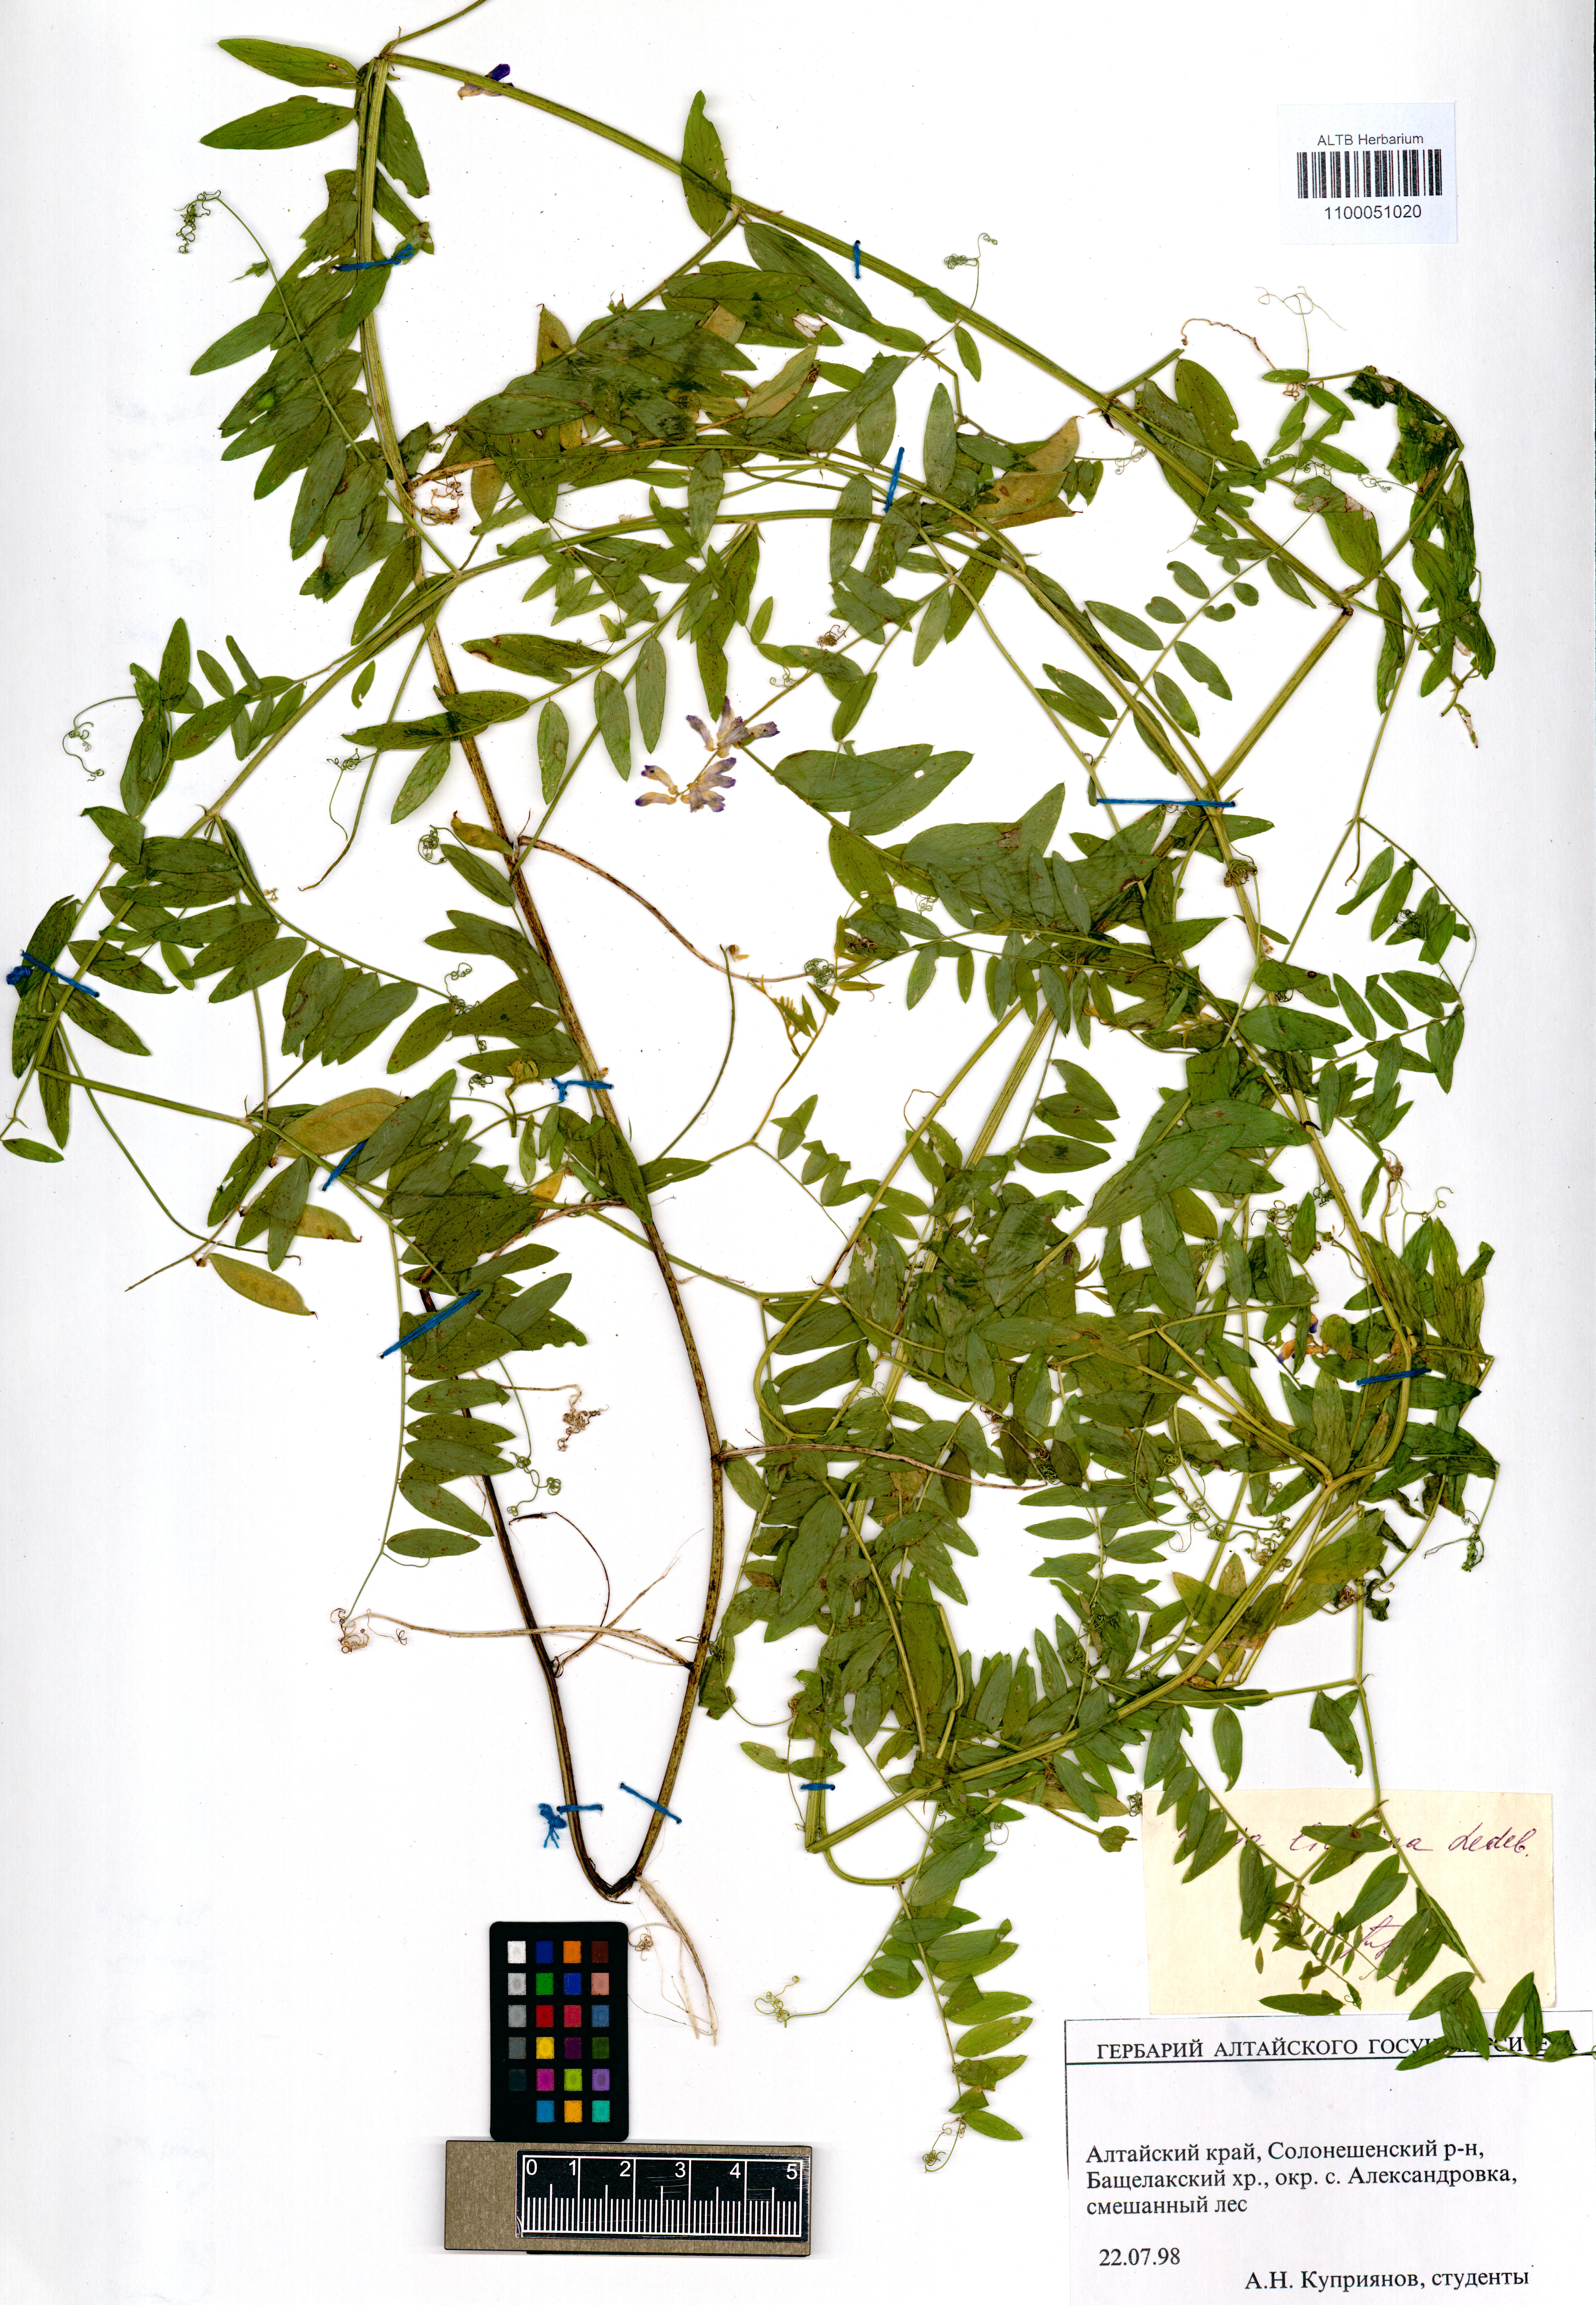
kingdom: Plantae
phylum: Tracheophyta
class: Magnoliopsida
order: Fabales
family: Fabaceae
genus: Vicia
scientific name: Vicia lilacina
